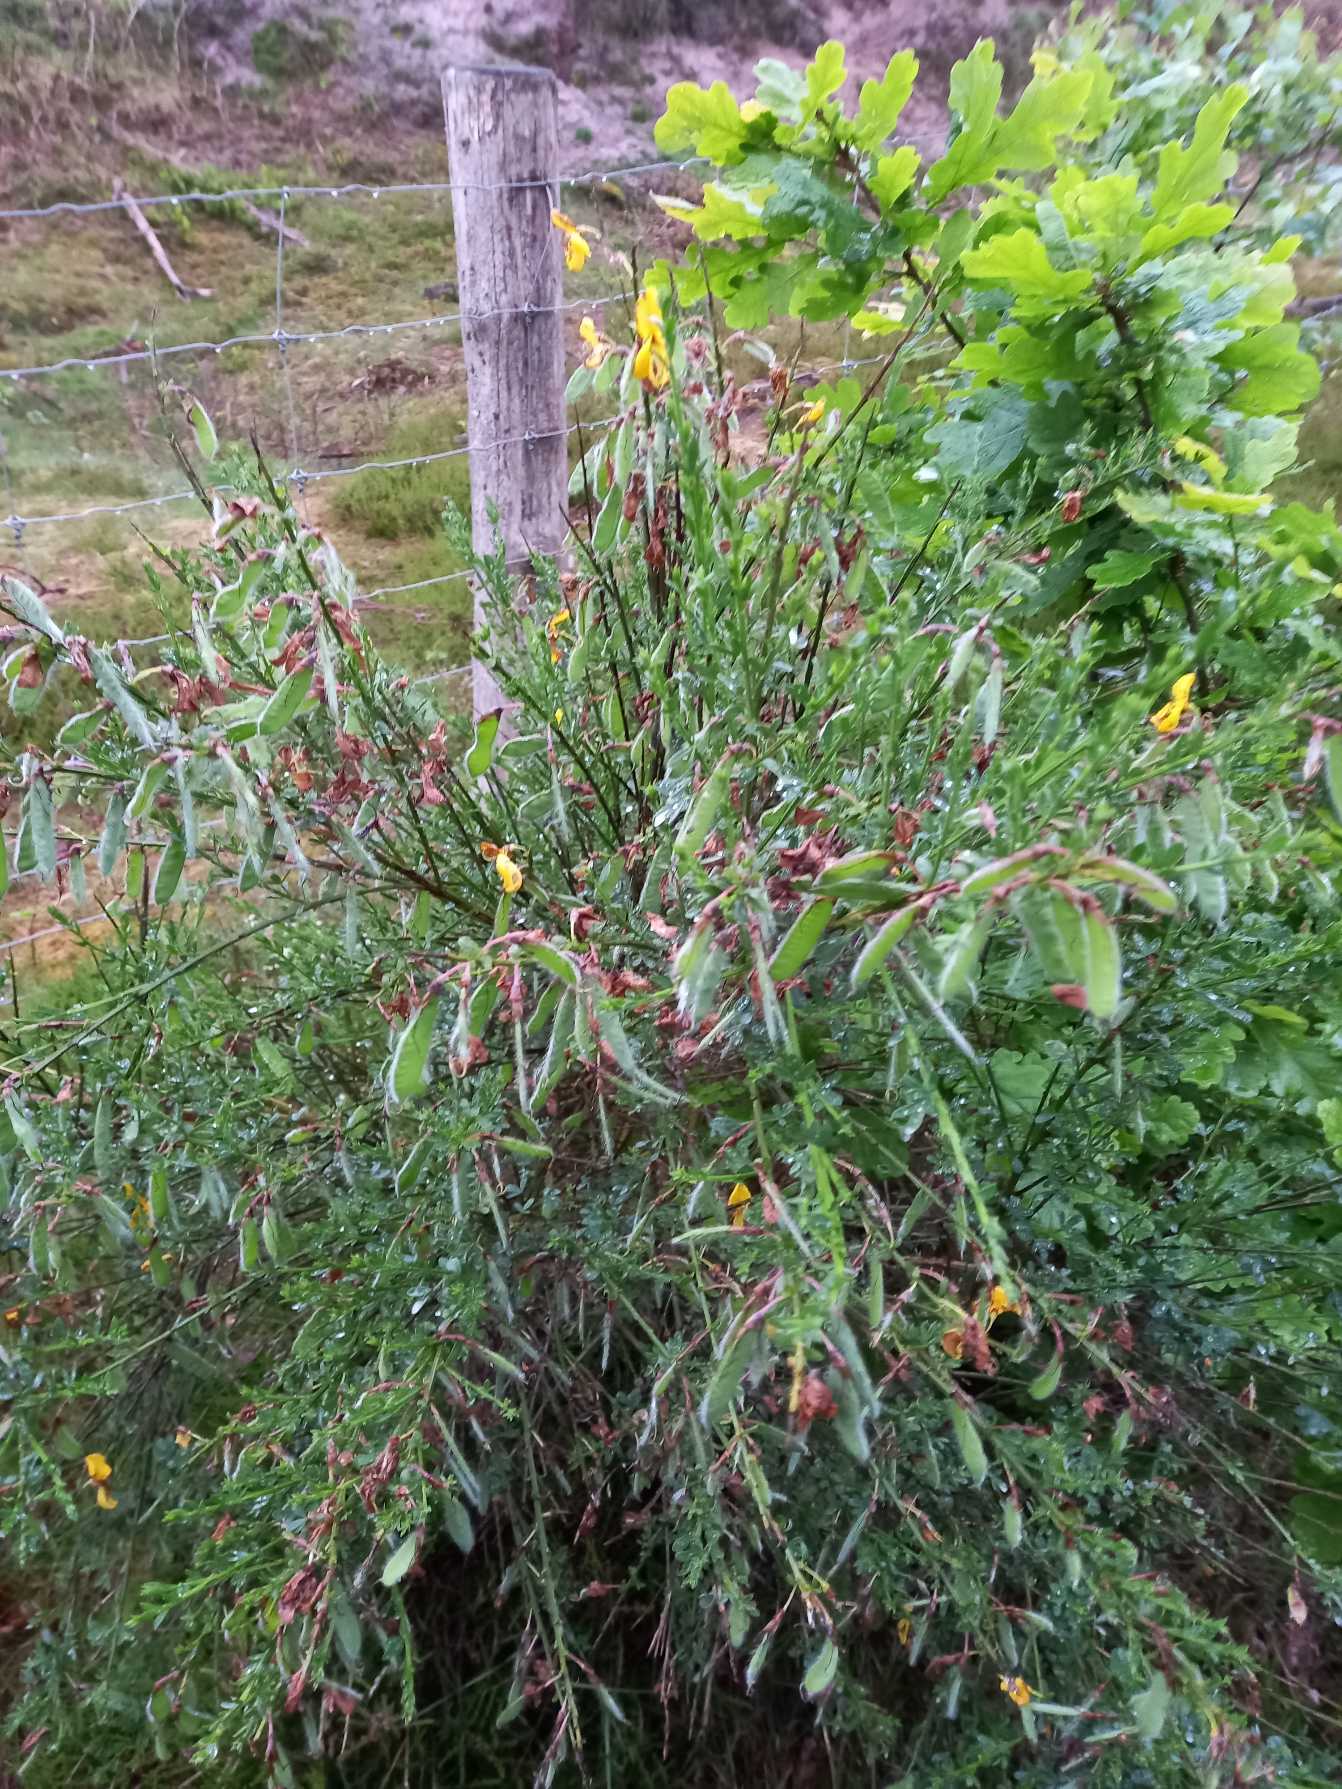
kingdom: Plantae
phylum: Tracheophyta
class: Magnoliopsida
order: Fabales
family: Fabaceae
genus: Cytisus
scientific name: Cytisus scoparius
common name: Almindelig gyvel
